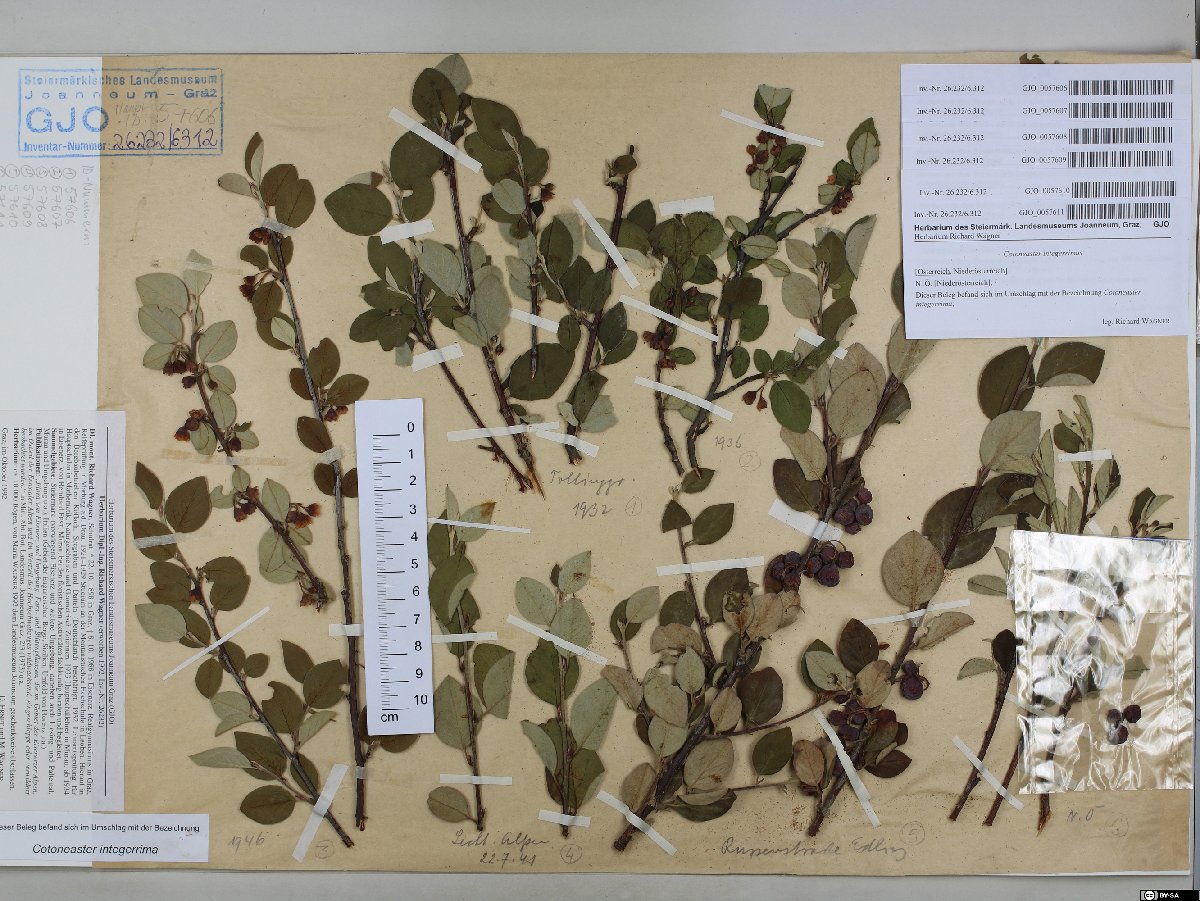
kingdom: Plantae
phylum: Tracheophyta
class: Magnoliopsida
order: Rosales
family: Rosaceae
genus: Cotoneaster
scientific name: Cotoneaster integerrimus
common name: Wild cotoneaster
